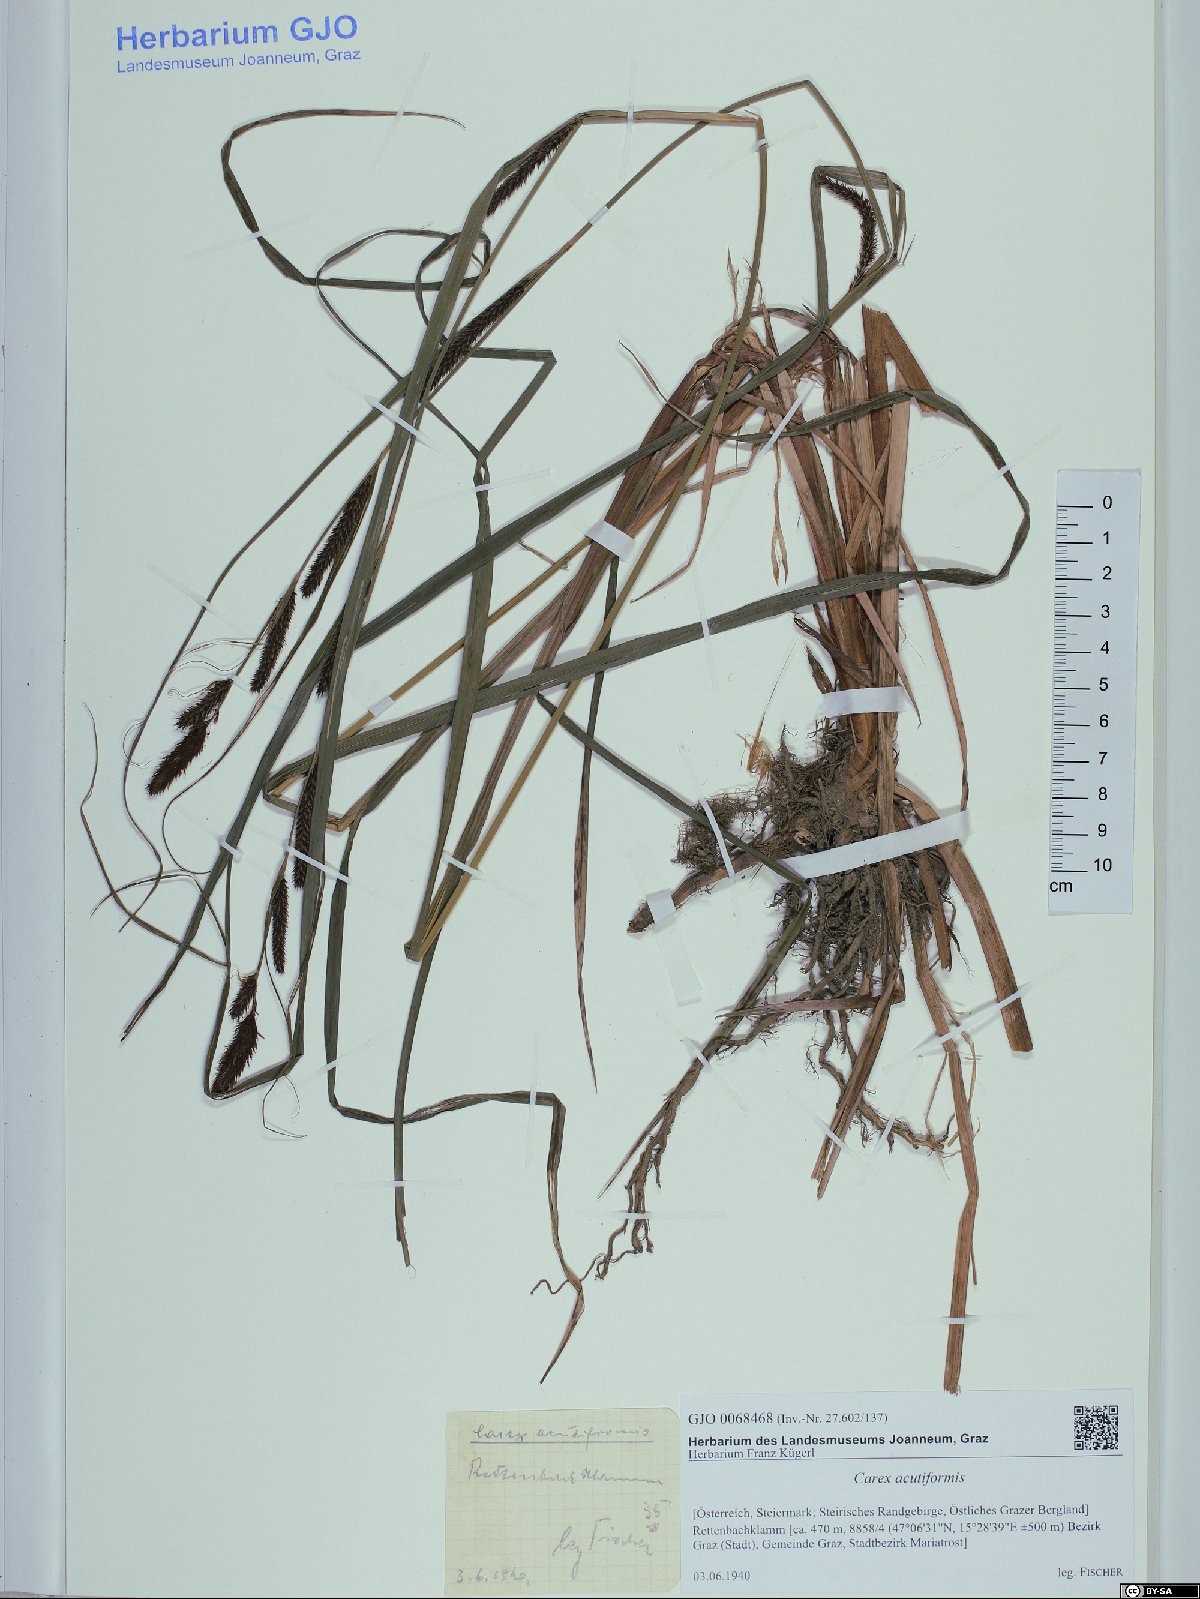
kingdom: Plantae
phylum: Tracheophyta
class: Liliopsida
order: Poales
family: Cyperaceae
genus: Carex
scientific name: Carex acutiformis
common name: Lesser pond-sedge
